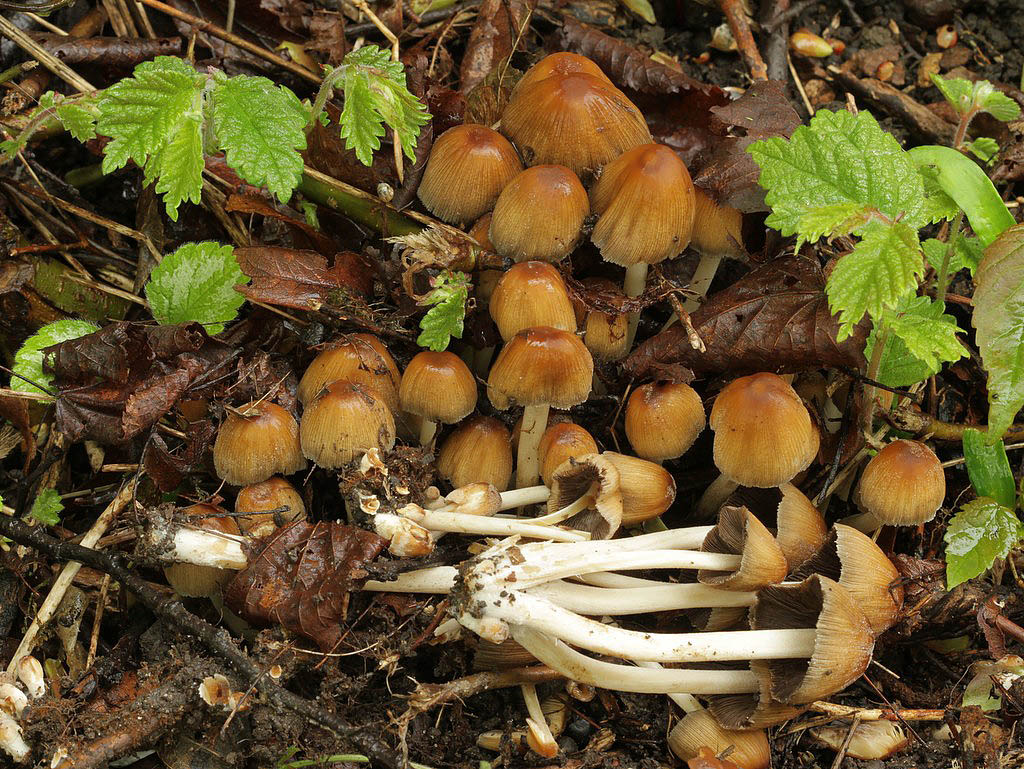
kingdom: Fungi
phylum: Basidiomycota
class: Agaricomycetes
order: Agaricales
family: Psathyrellaceae
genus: Coprinellus
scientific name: Coprinellus micaceus
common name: glimmer-blækhat
